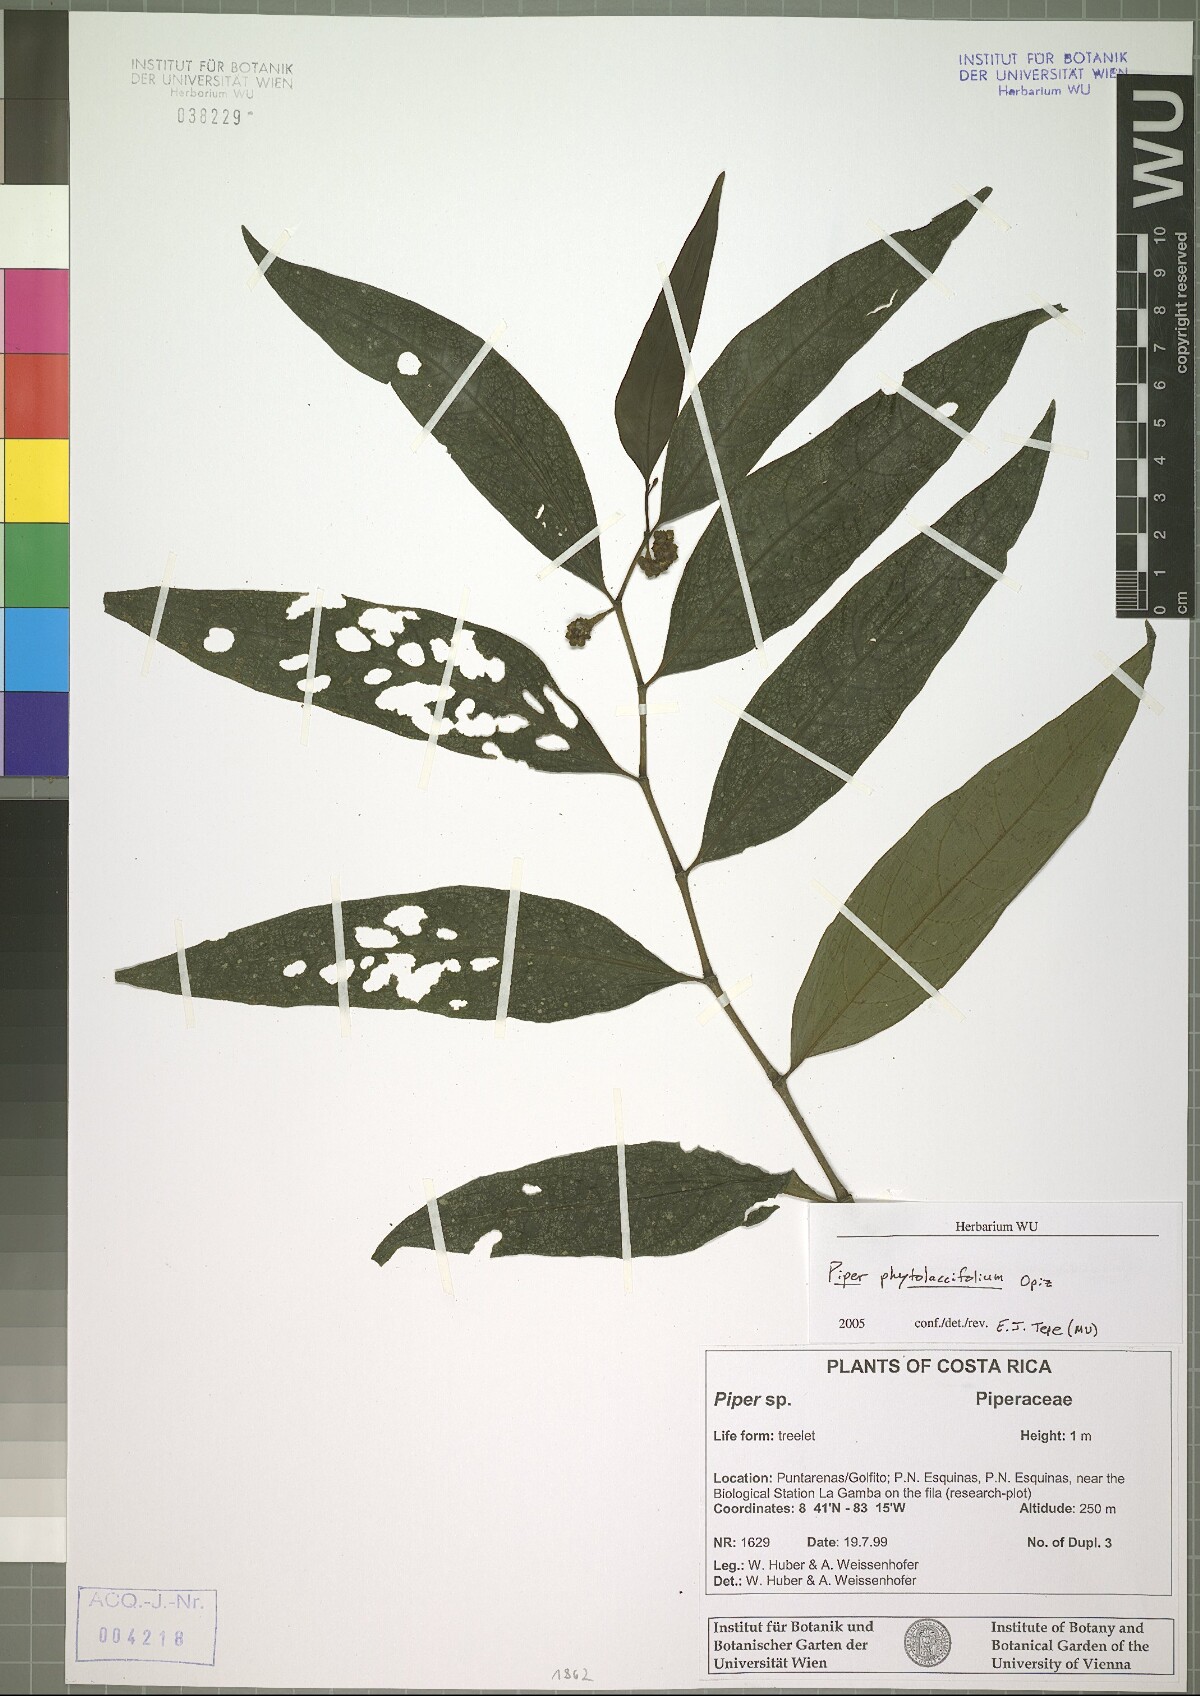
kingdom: Plantae
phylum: Tracheophyta
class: Magnoliopsida
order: Piperales
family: Piperaceae
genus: Piper
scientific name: Piper phytolaccifolium
